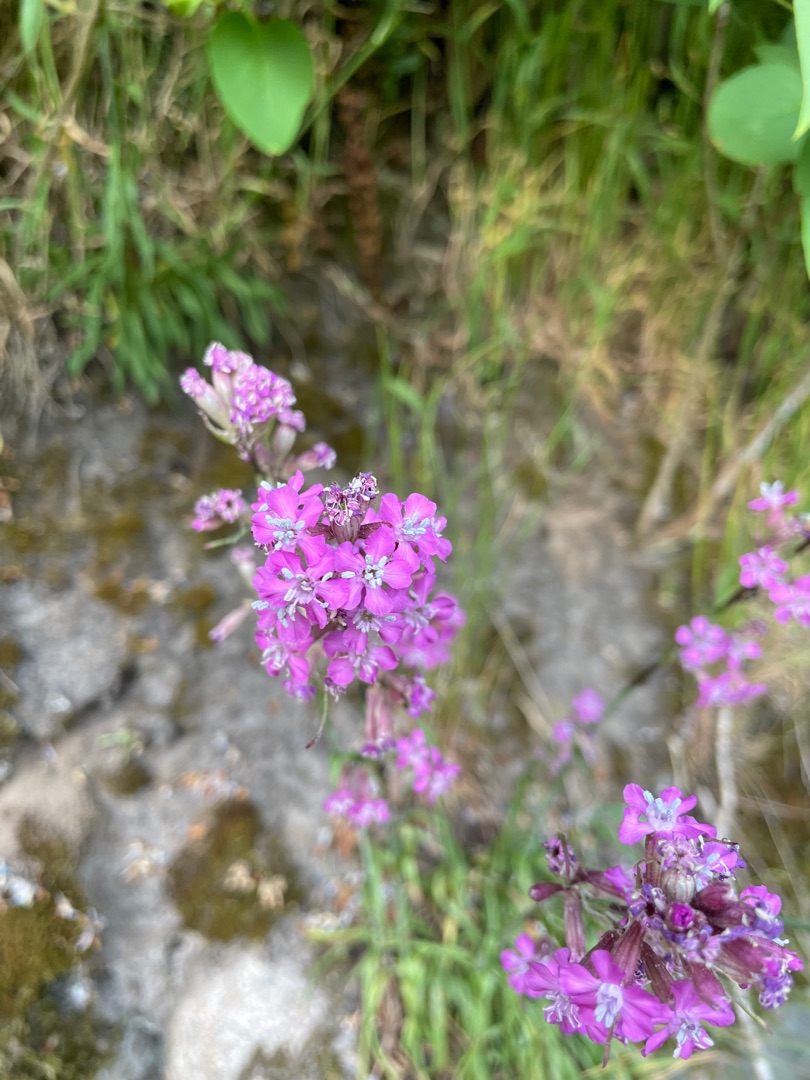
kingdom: Plantae
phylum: Tracheophyta
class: Magnoliopsida
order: Caryophyllales
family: Caryophyllaceae
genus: Viscaria
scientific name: Viscaria vulgaris
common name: Tjærenellike
